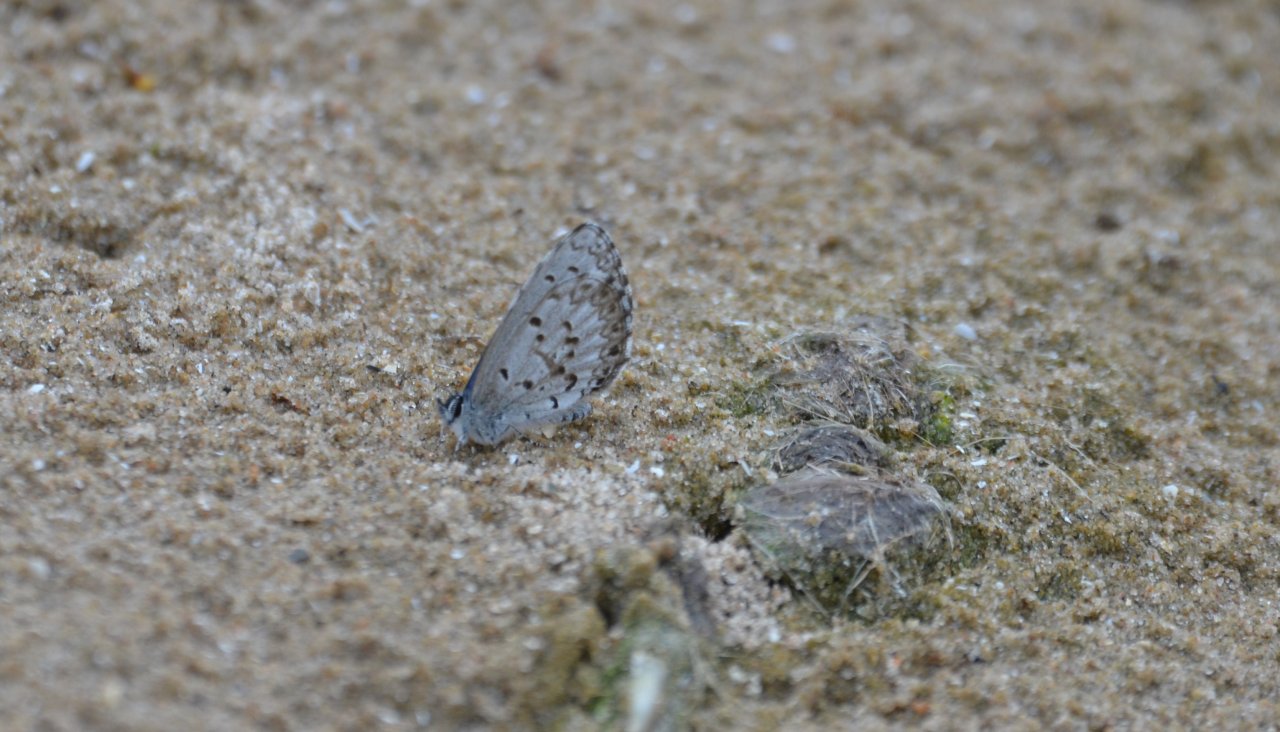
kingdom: Animalia
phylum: Arthropoda
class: Insecta
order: Lepidoptera
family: Lycaenidae
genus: Celastrina
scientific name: Celastrina lucia
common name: Northern Spring Azure
